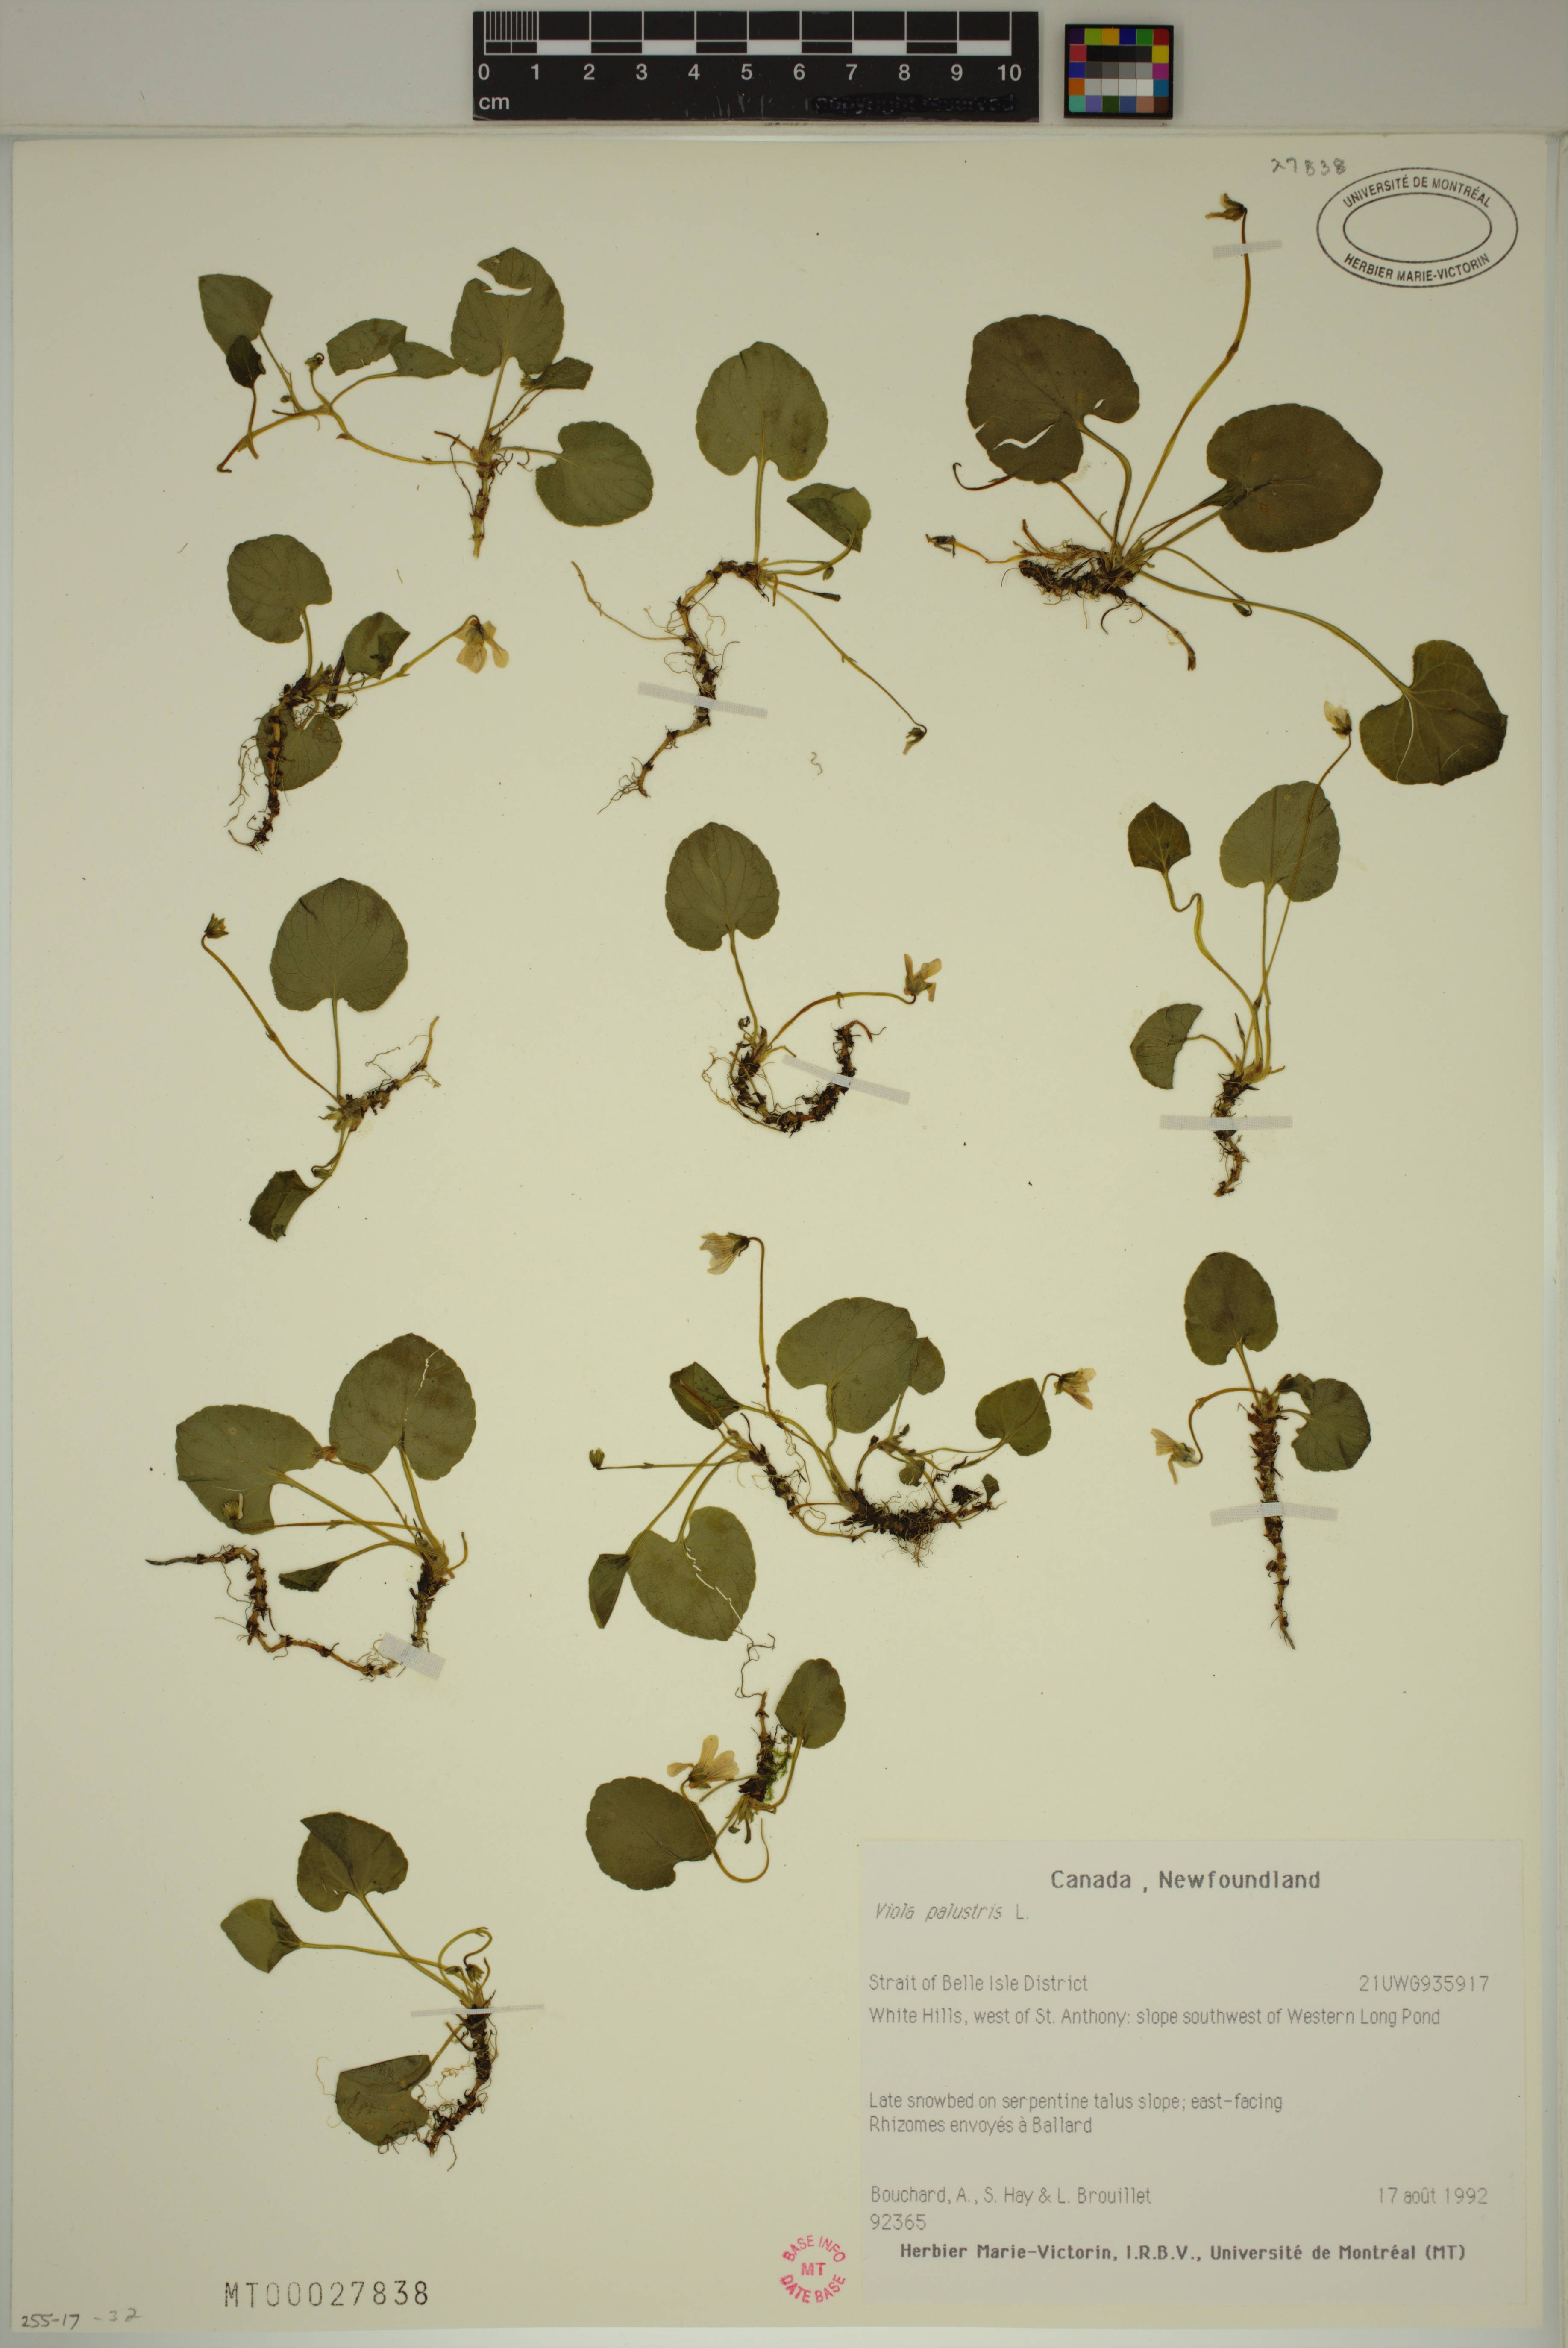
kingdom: Plantae
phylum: Tracheophyta
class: Magnoliopsida
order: Malpighiales
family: Violaceae
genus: Viola
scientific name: Viola palustris
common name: Marsh violet
